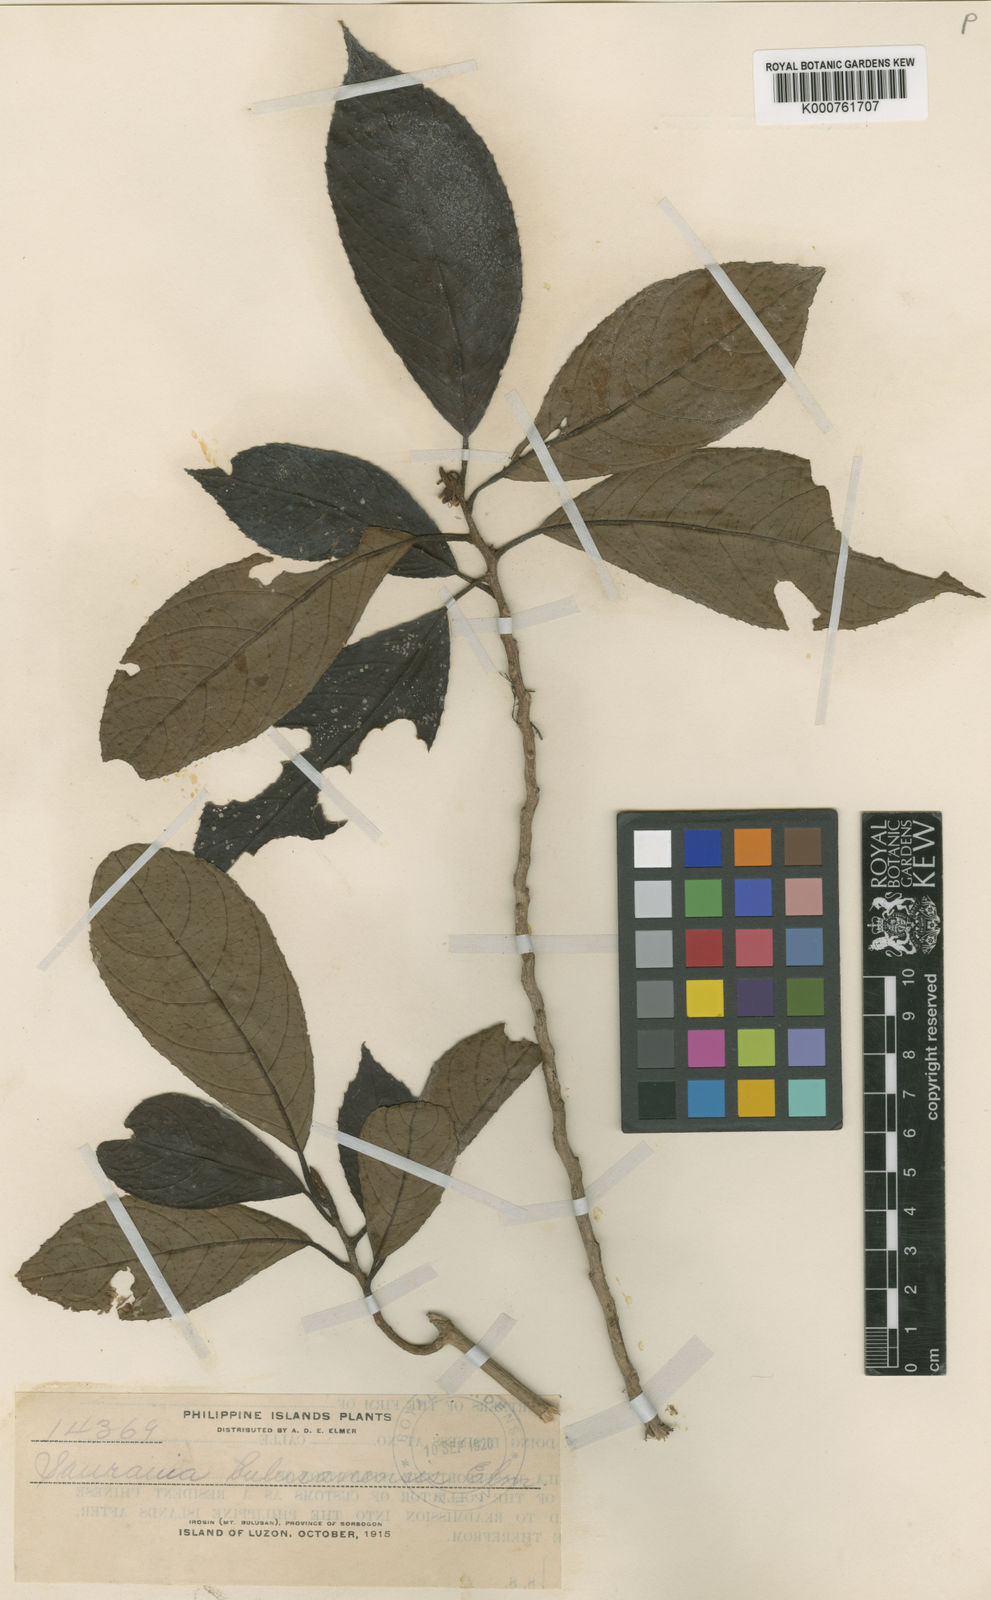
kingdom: Plantae
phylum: Tracheophyta
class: Magnoliopsida
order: Ericales
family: Actinidiaceae
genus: Saurauia
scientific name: Saurauia
